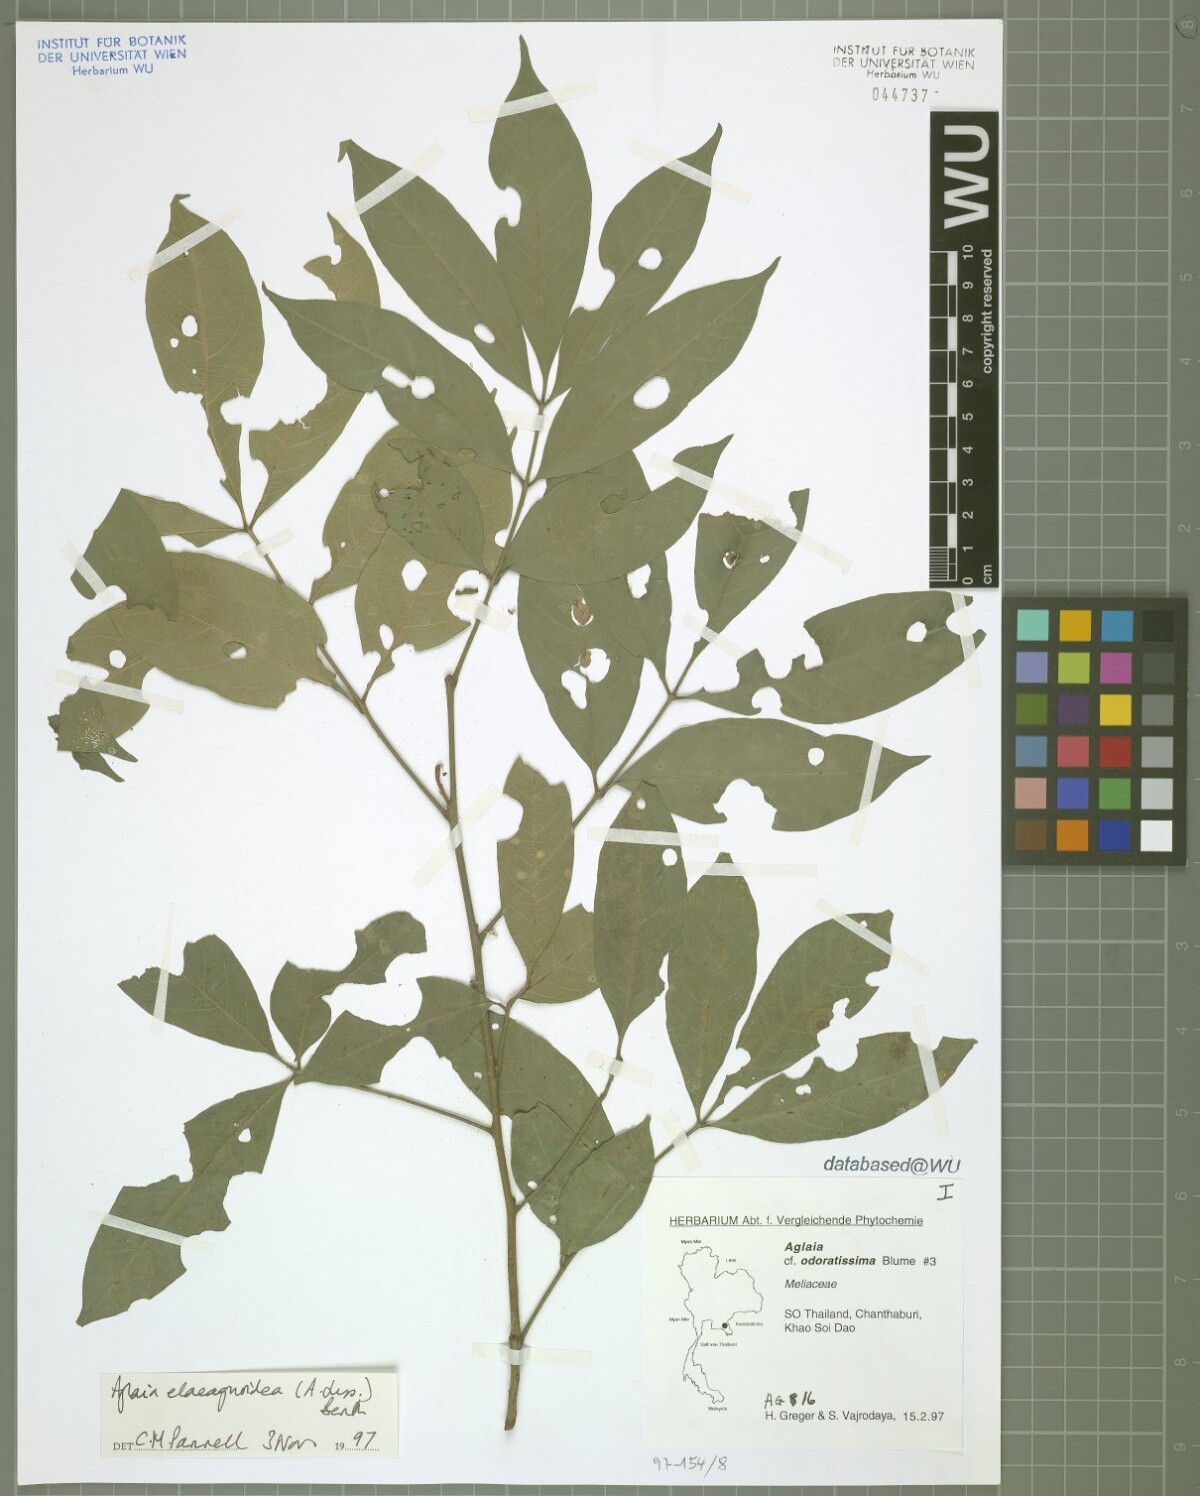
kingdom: Plantae
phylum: Tracheophyta
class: Magnoliopsida
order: Sapindales
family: Meliaceae
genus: Aglaia
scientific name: Aglaia elaeagnoidea
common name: Droopyleaf
